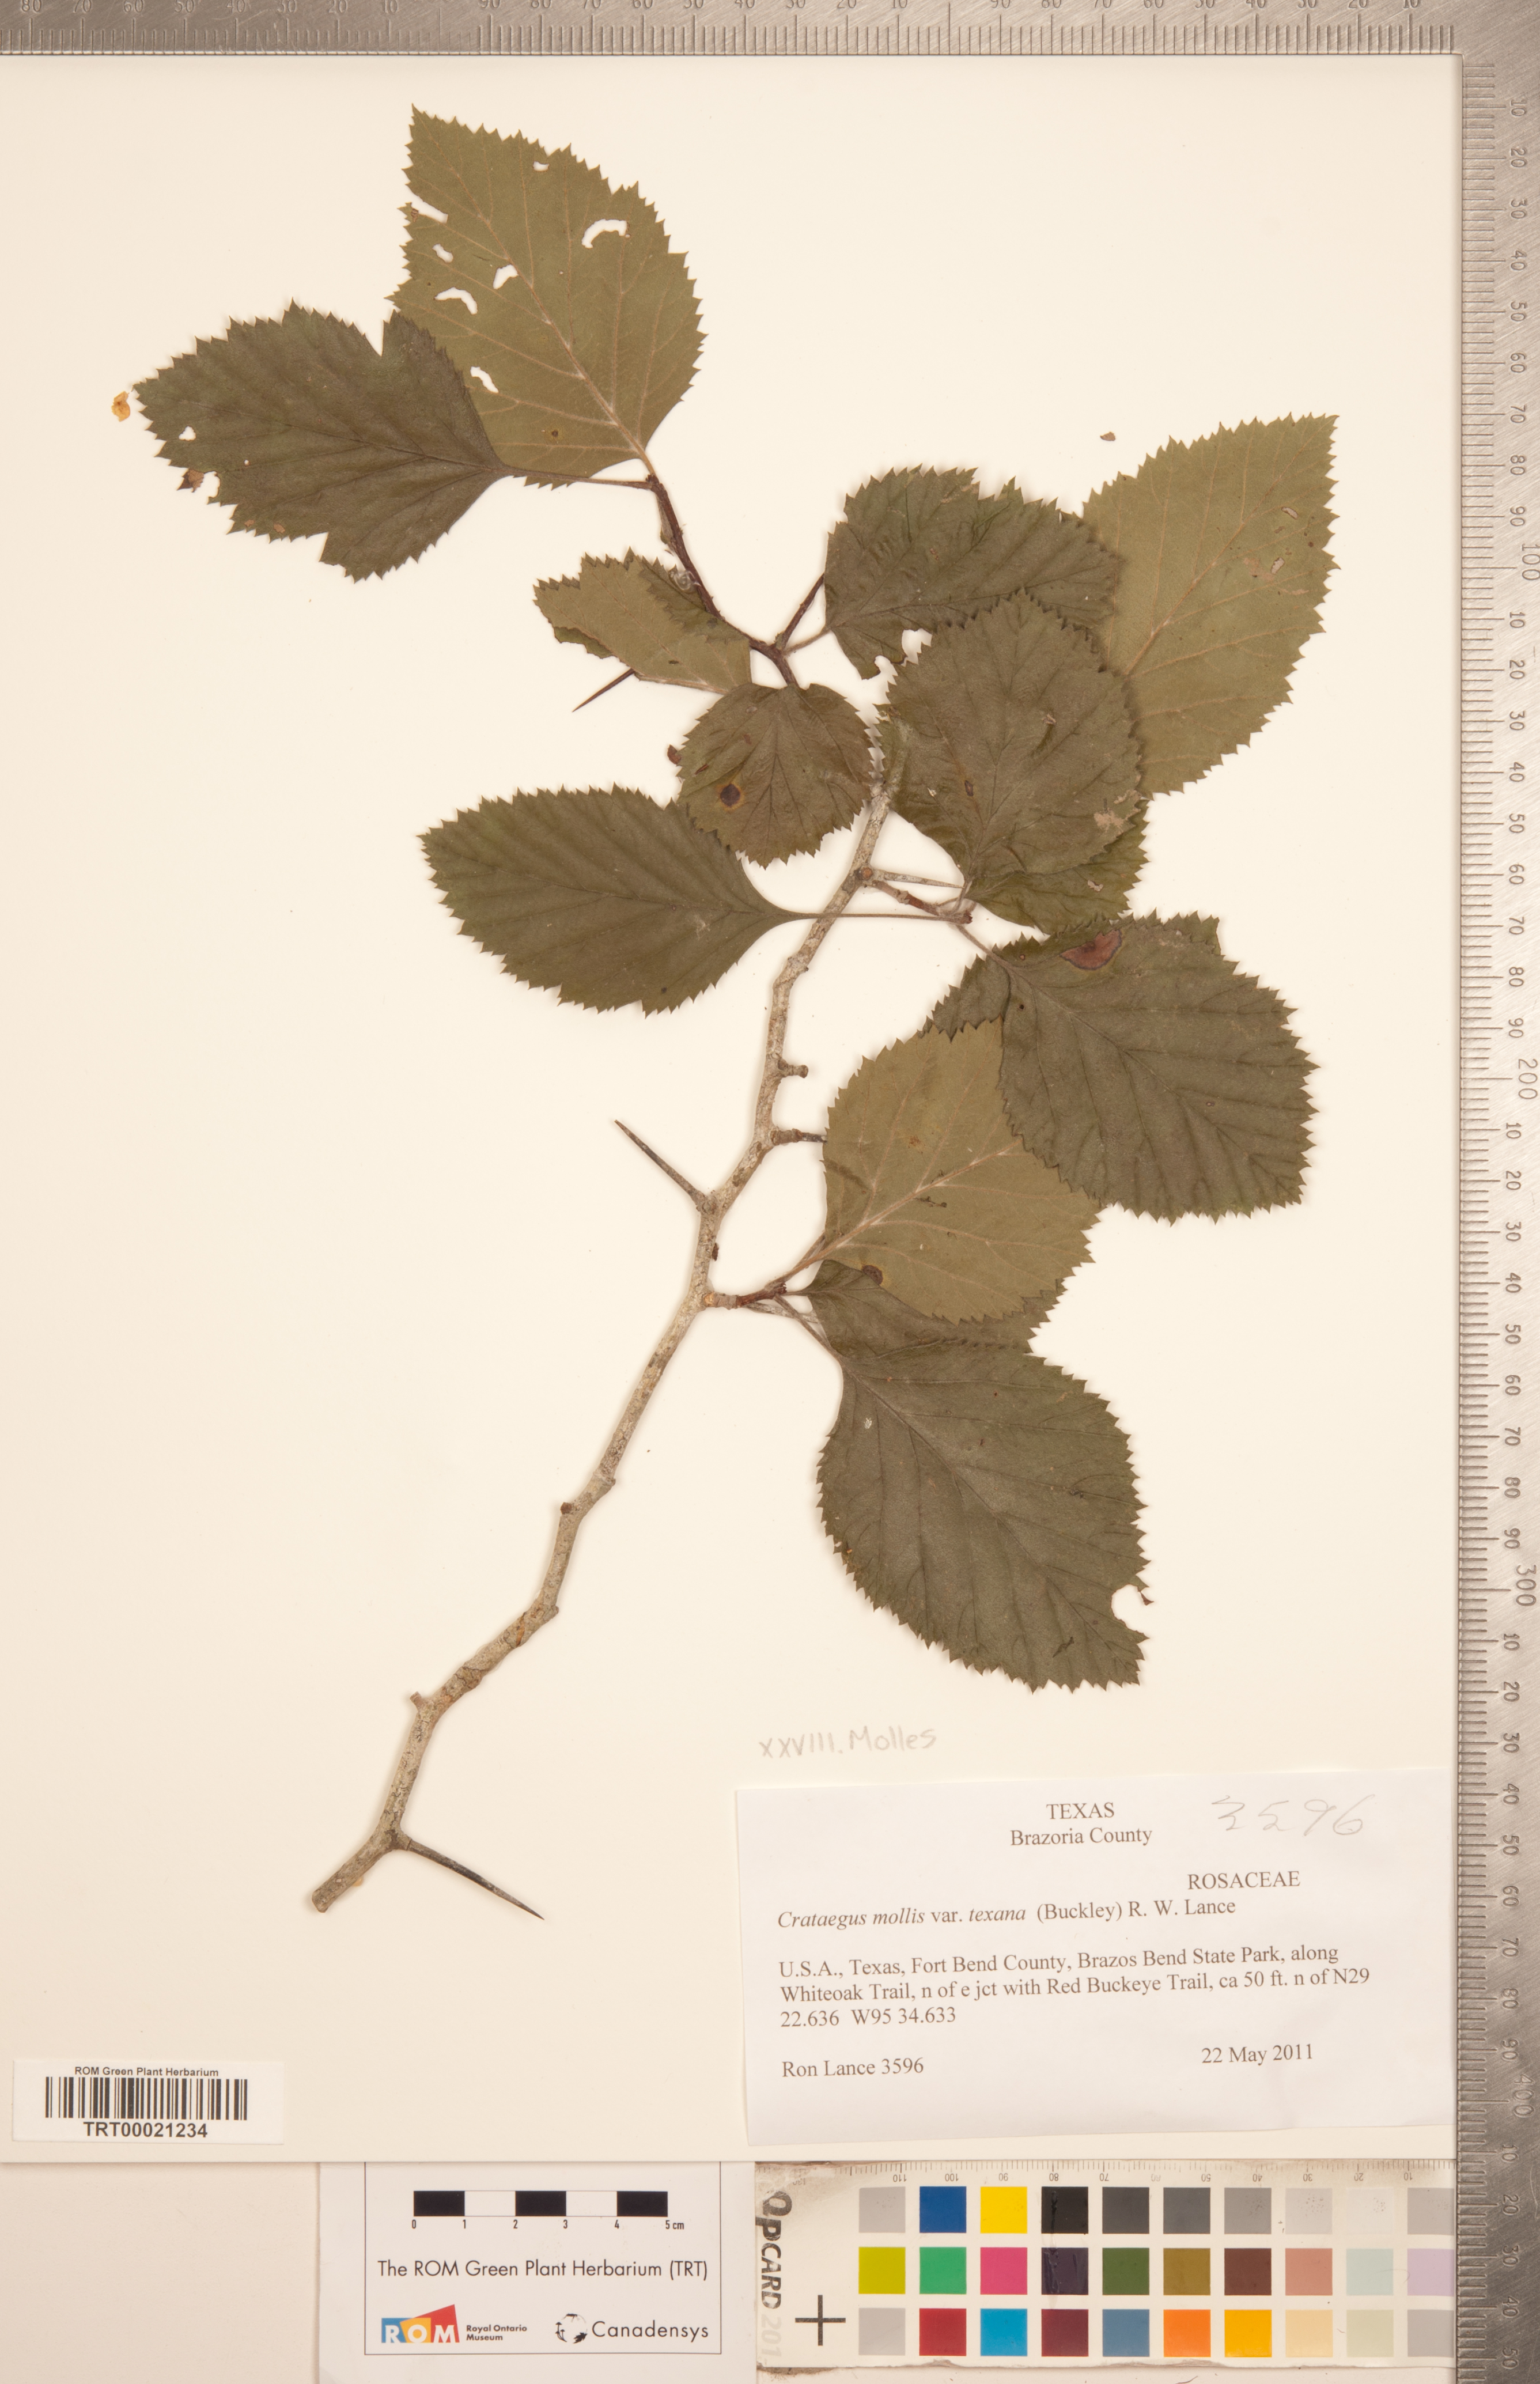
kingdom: Plantae
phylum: Tracheophyta
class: Magnoliopsida
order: Rosales
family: Rosaceae
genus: Crataegus
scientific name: Crataegus texana
